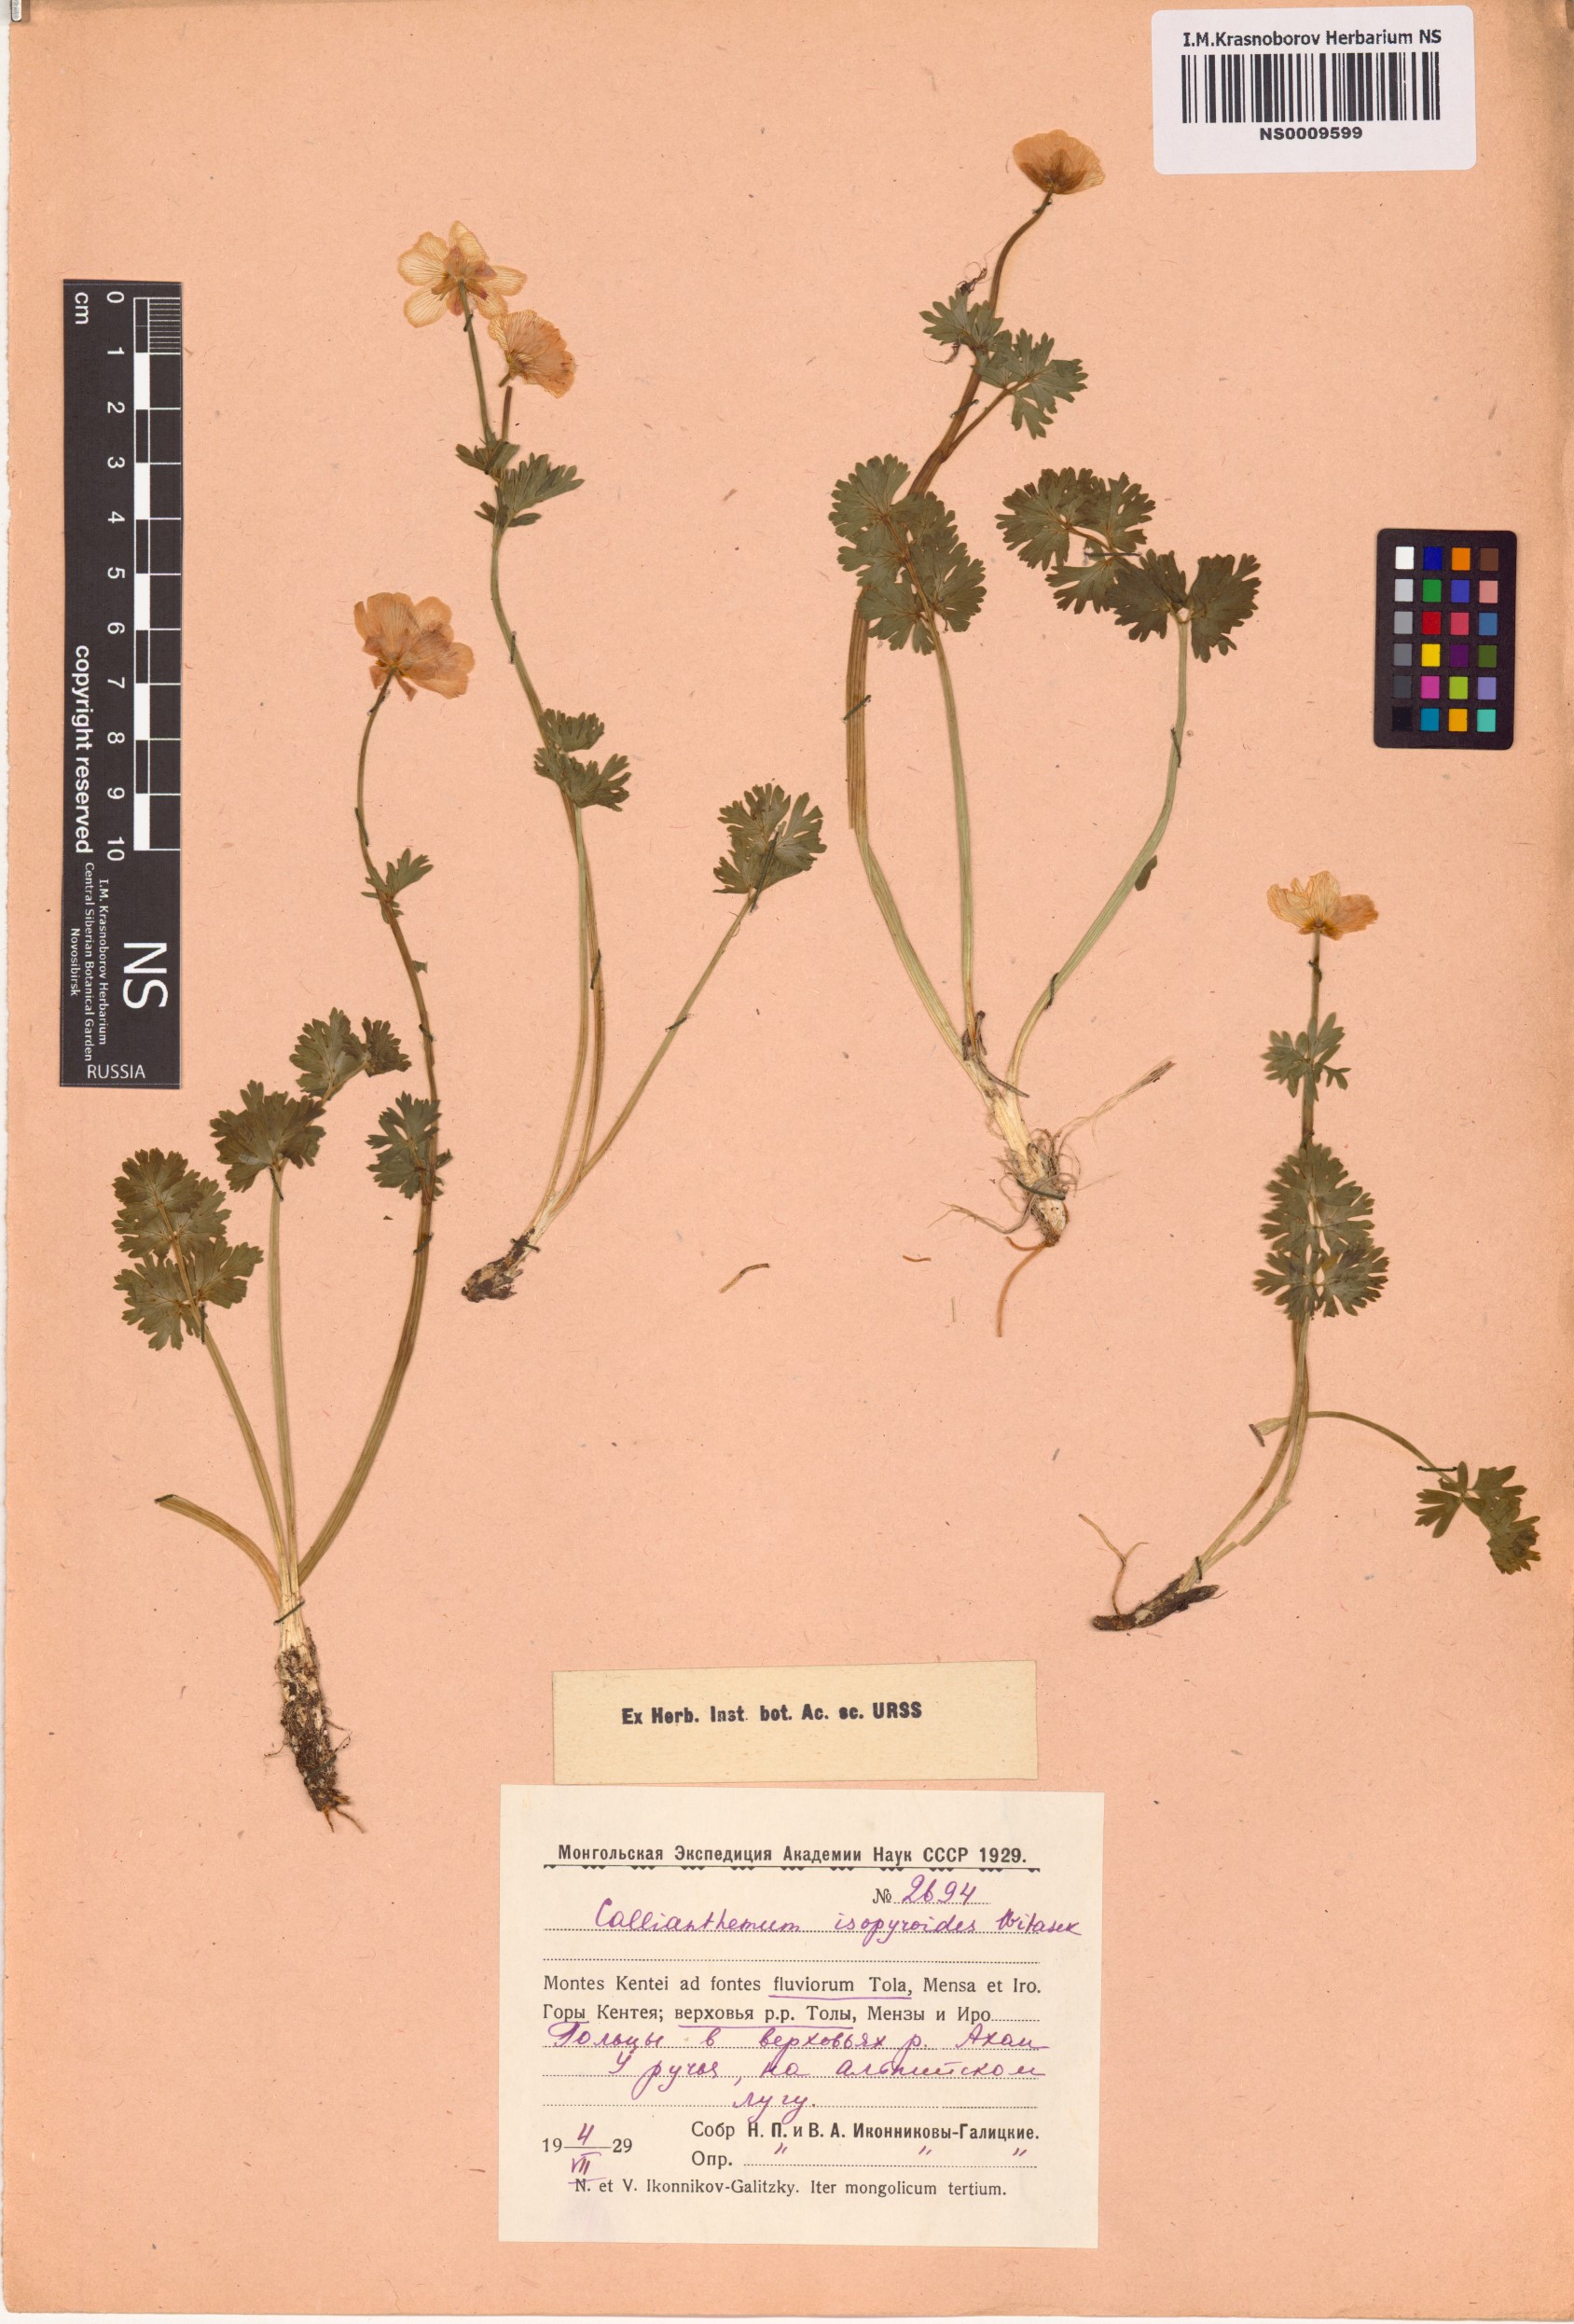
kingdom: Plantae
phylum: Tracheophyta
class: Magnoliopsida
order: Ranunculales
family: Ranunculaceae
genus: Callianthemum
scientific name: Callianthemum isopyroides
